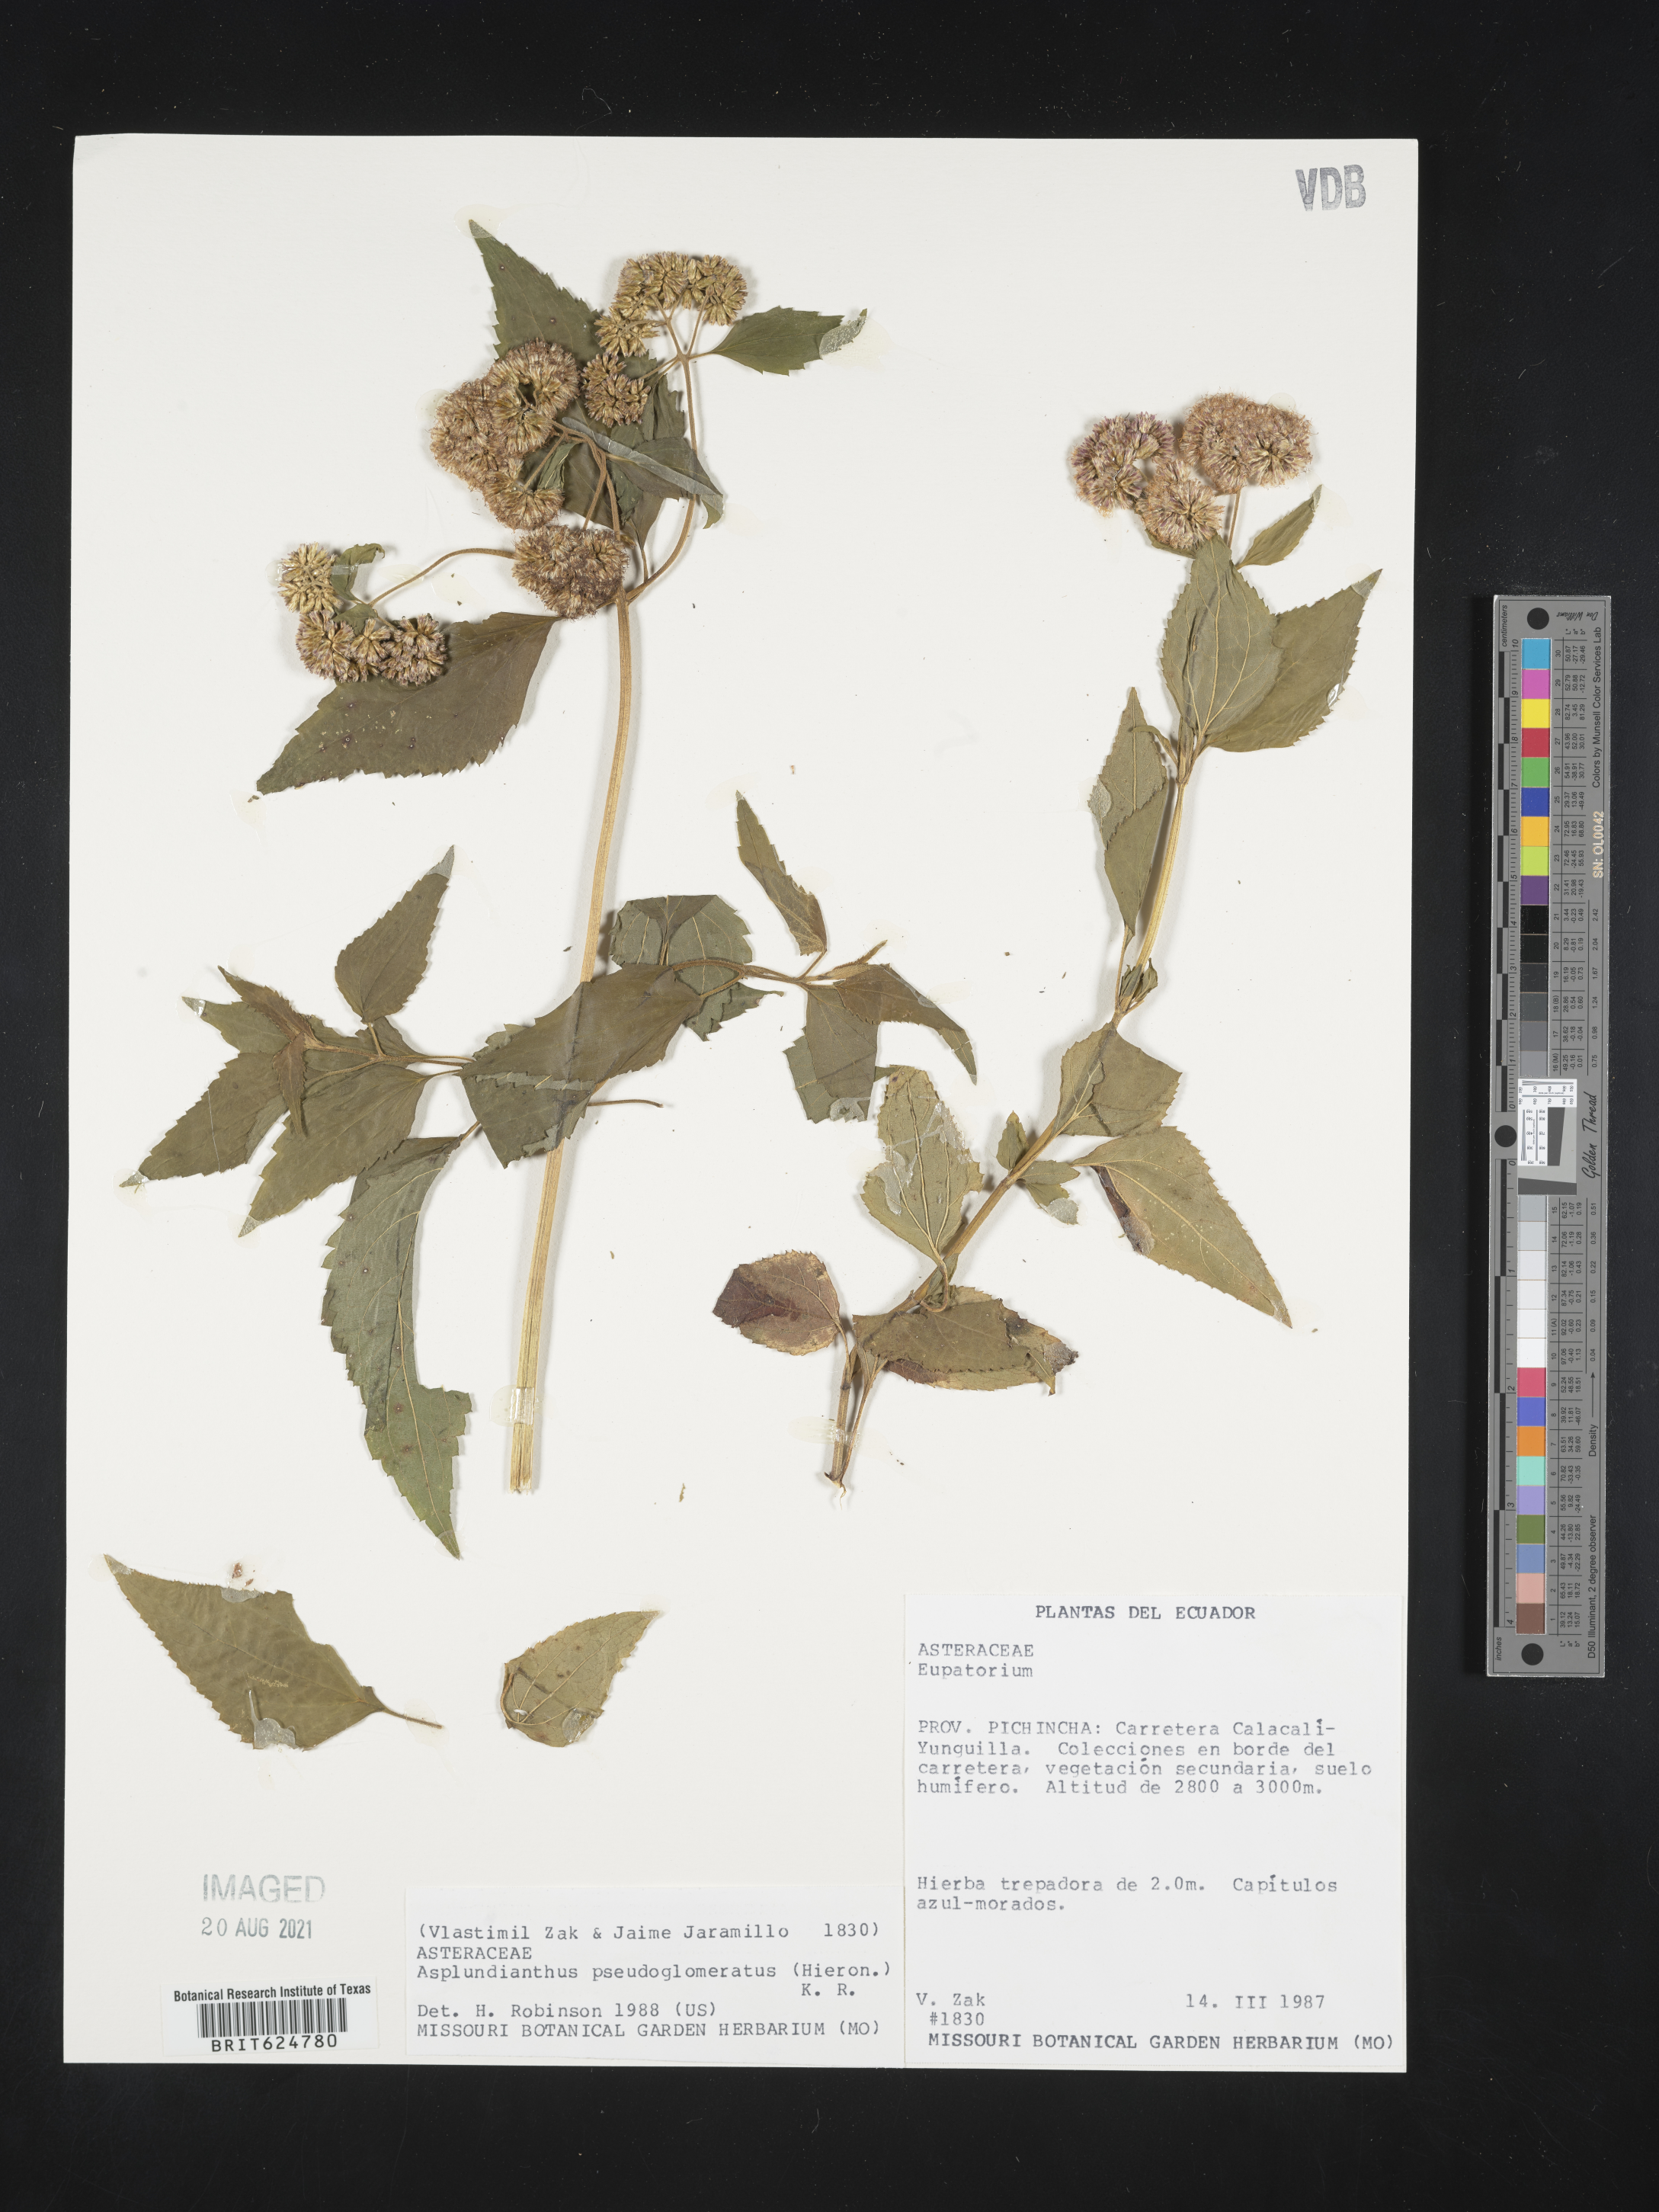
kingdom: Plantae
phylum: Tracheophyta
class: Magnoliopsida
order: Asterales
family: Asteraceae
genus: Asplundianthus
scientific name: Asplundianthus pseudoglomeratus
